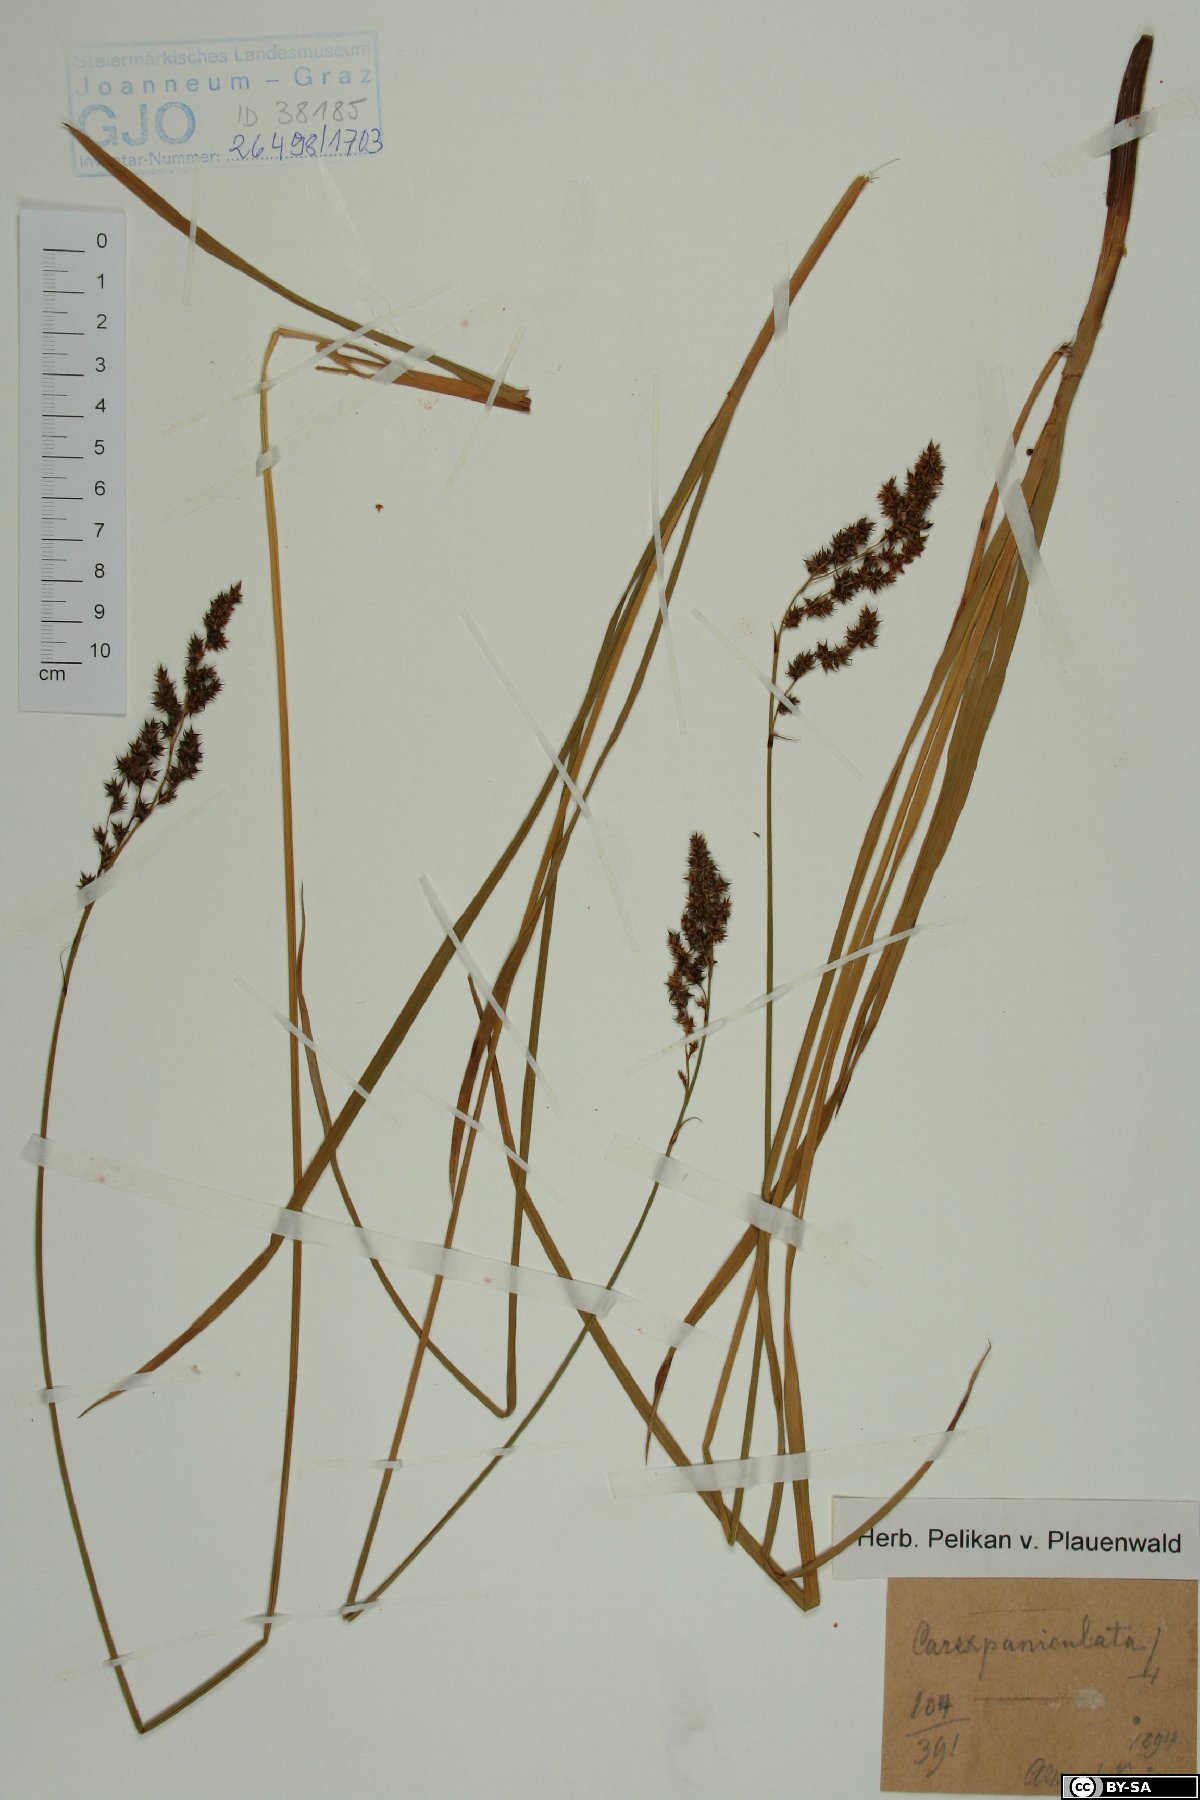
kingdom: Plantae
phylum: Tracheophyta
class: Liliopsida
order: Poales
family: Cyperaceae
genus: Carex
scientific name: Carex paniculata
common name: Greater tussock-sedge
